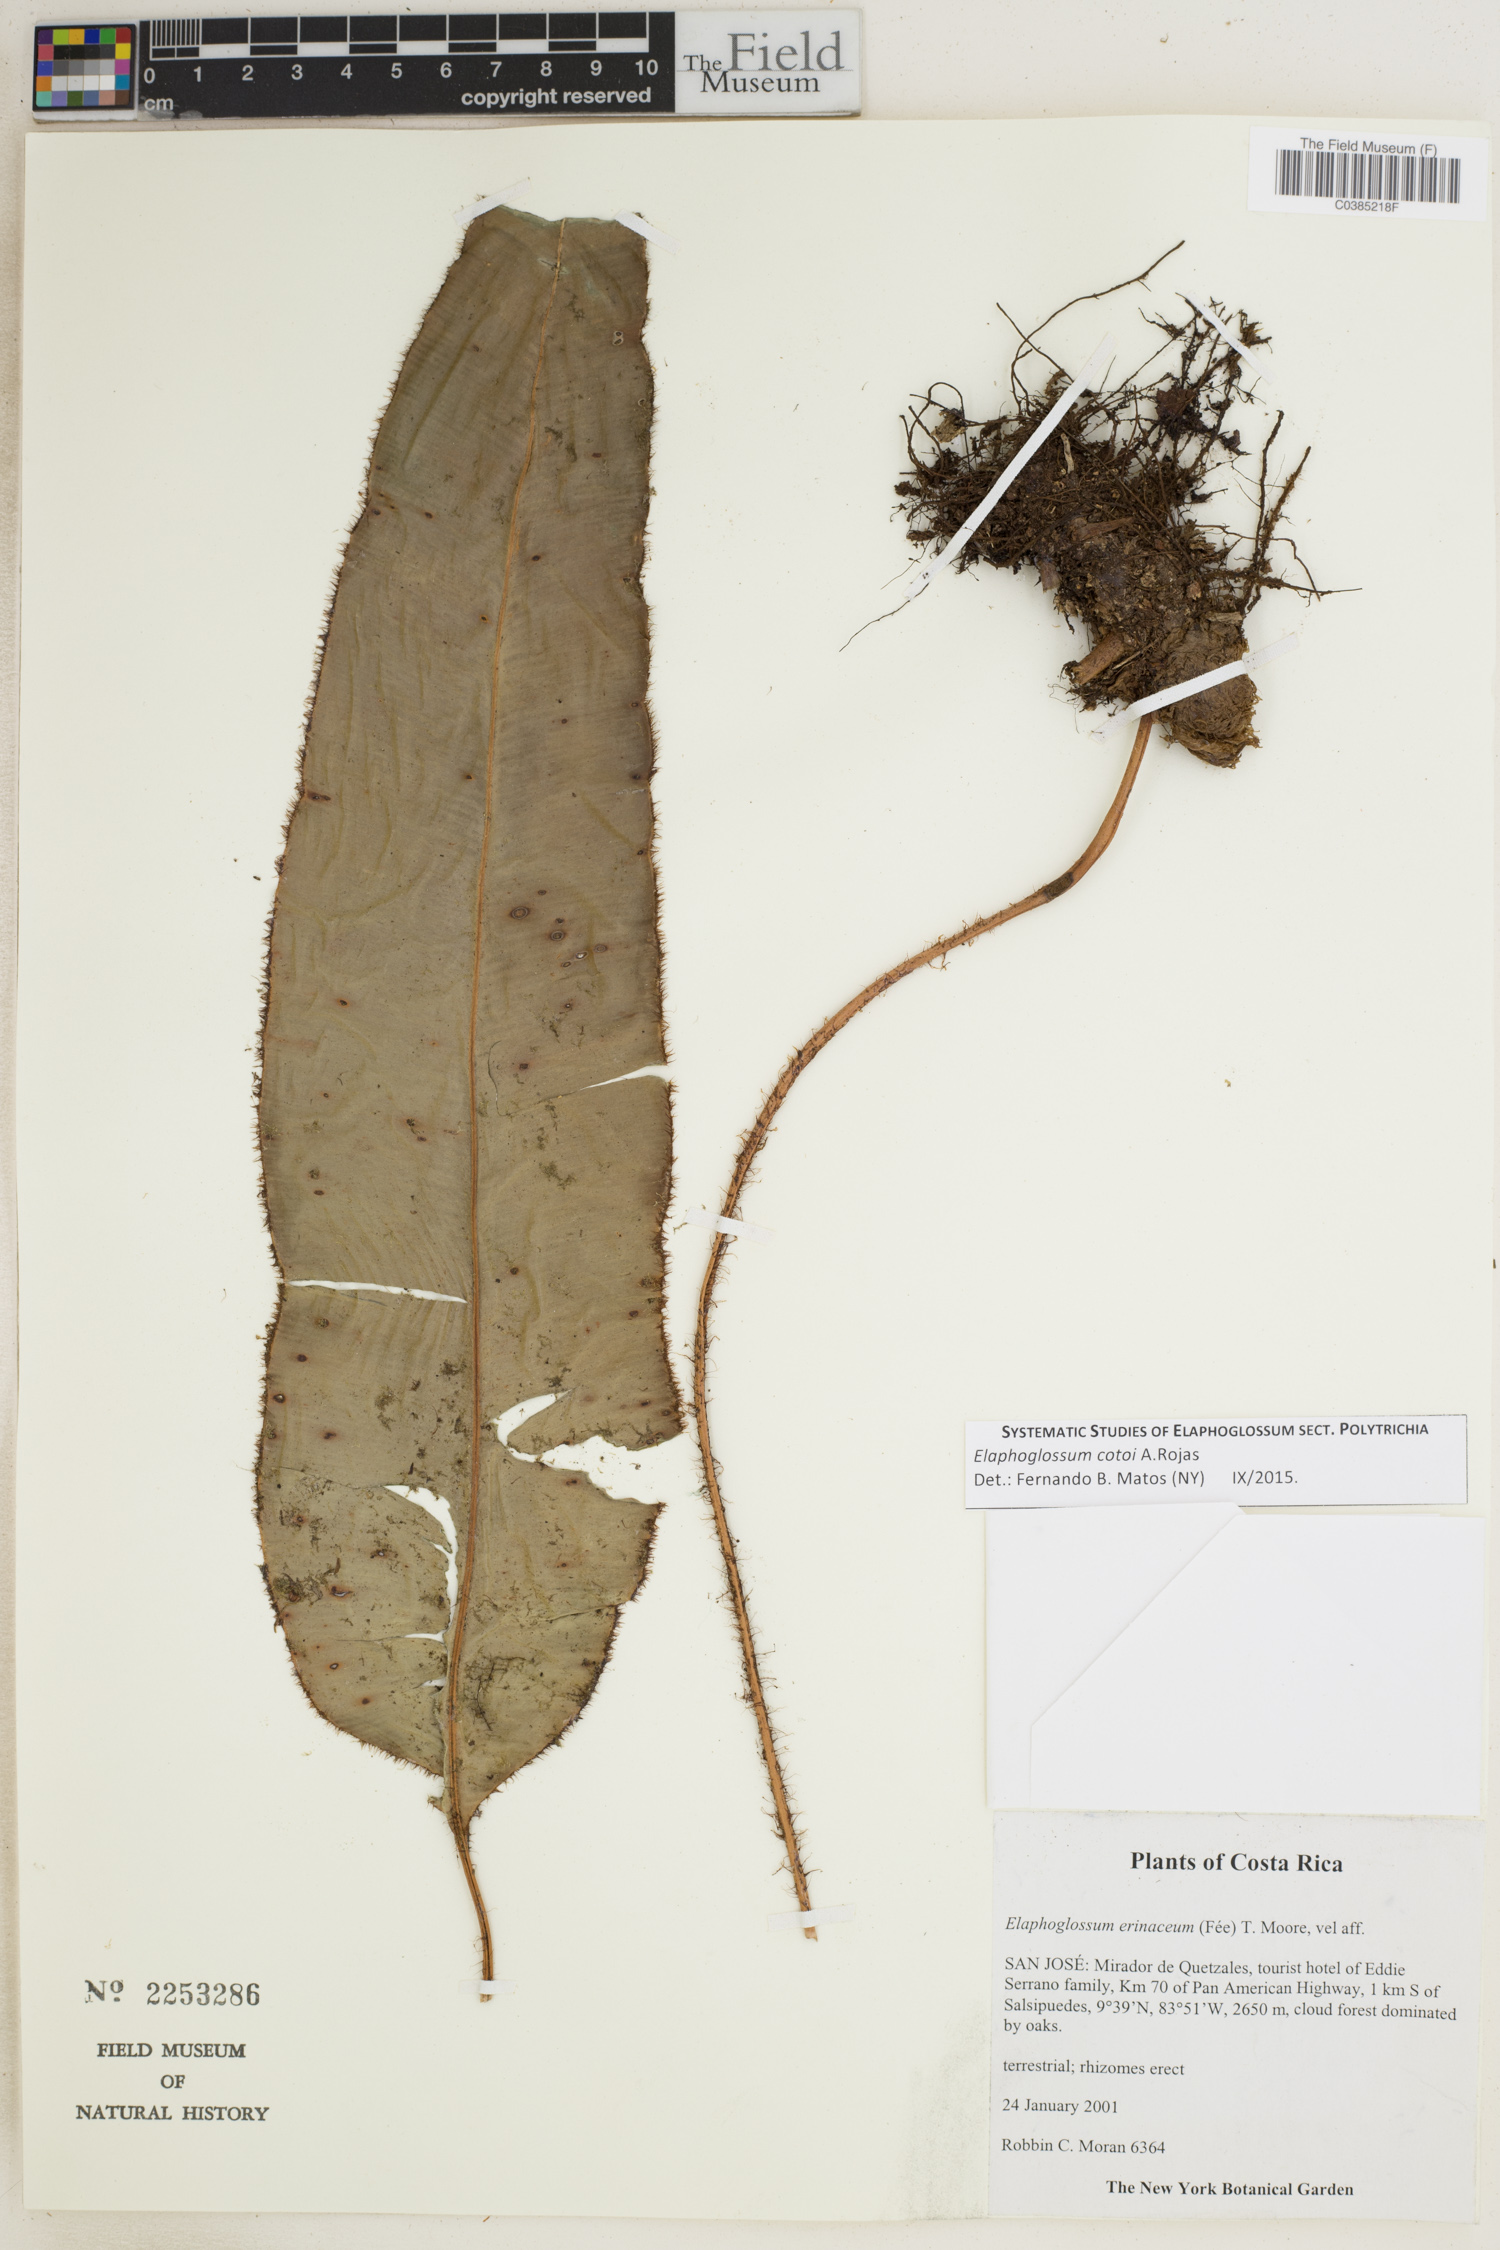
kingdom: Plantae
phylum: Tracheophyta
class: Polypodiopsida
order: Polypodiales
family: Dryopteridaceae
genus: Elaphoglossum
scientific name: Elaphoglossum cotoi
